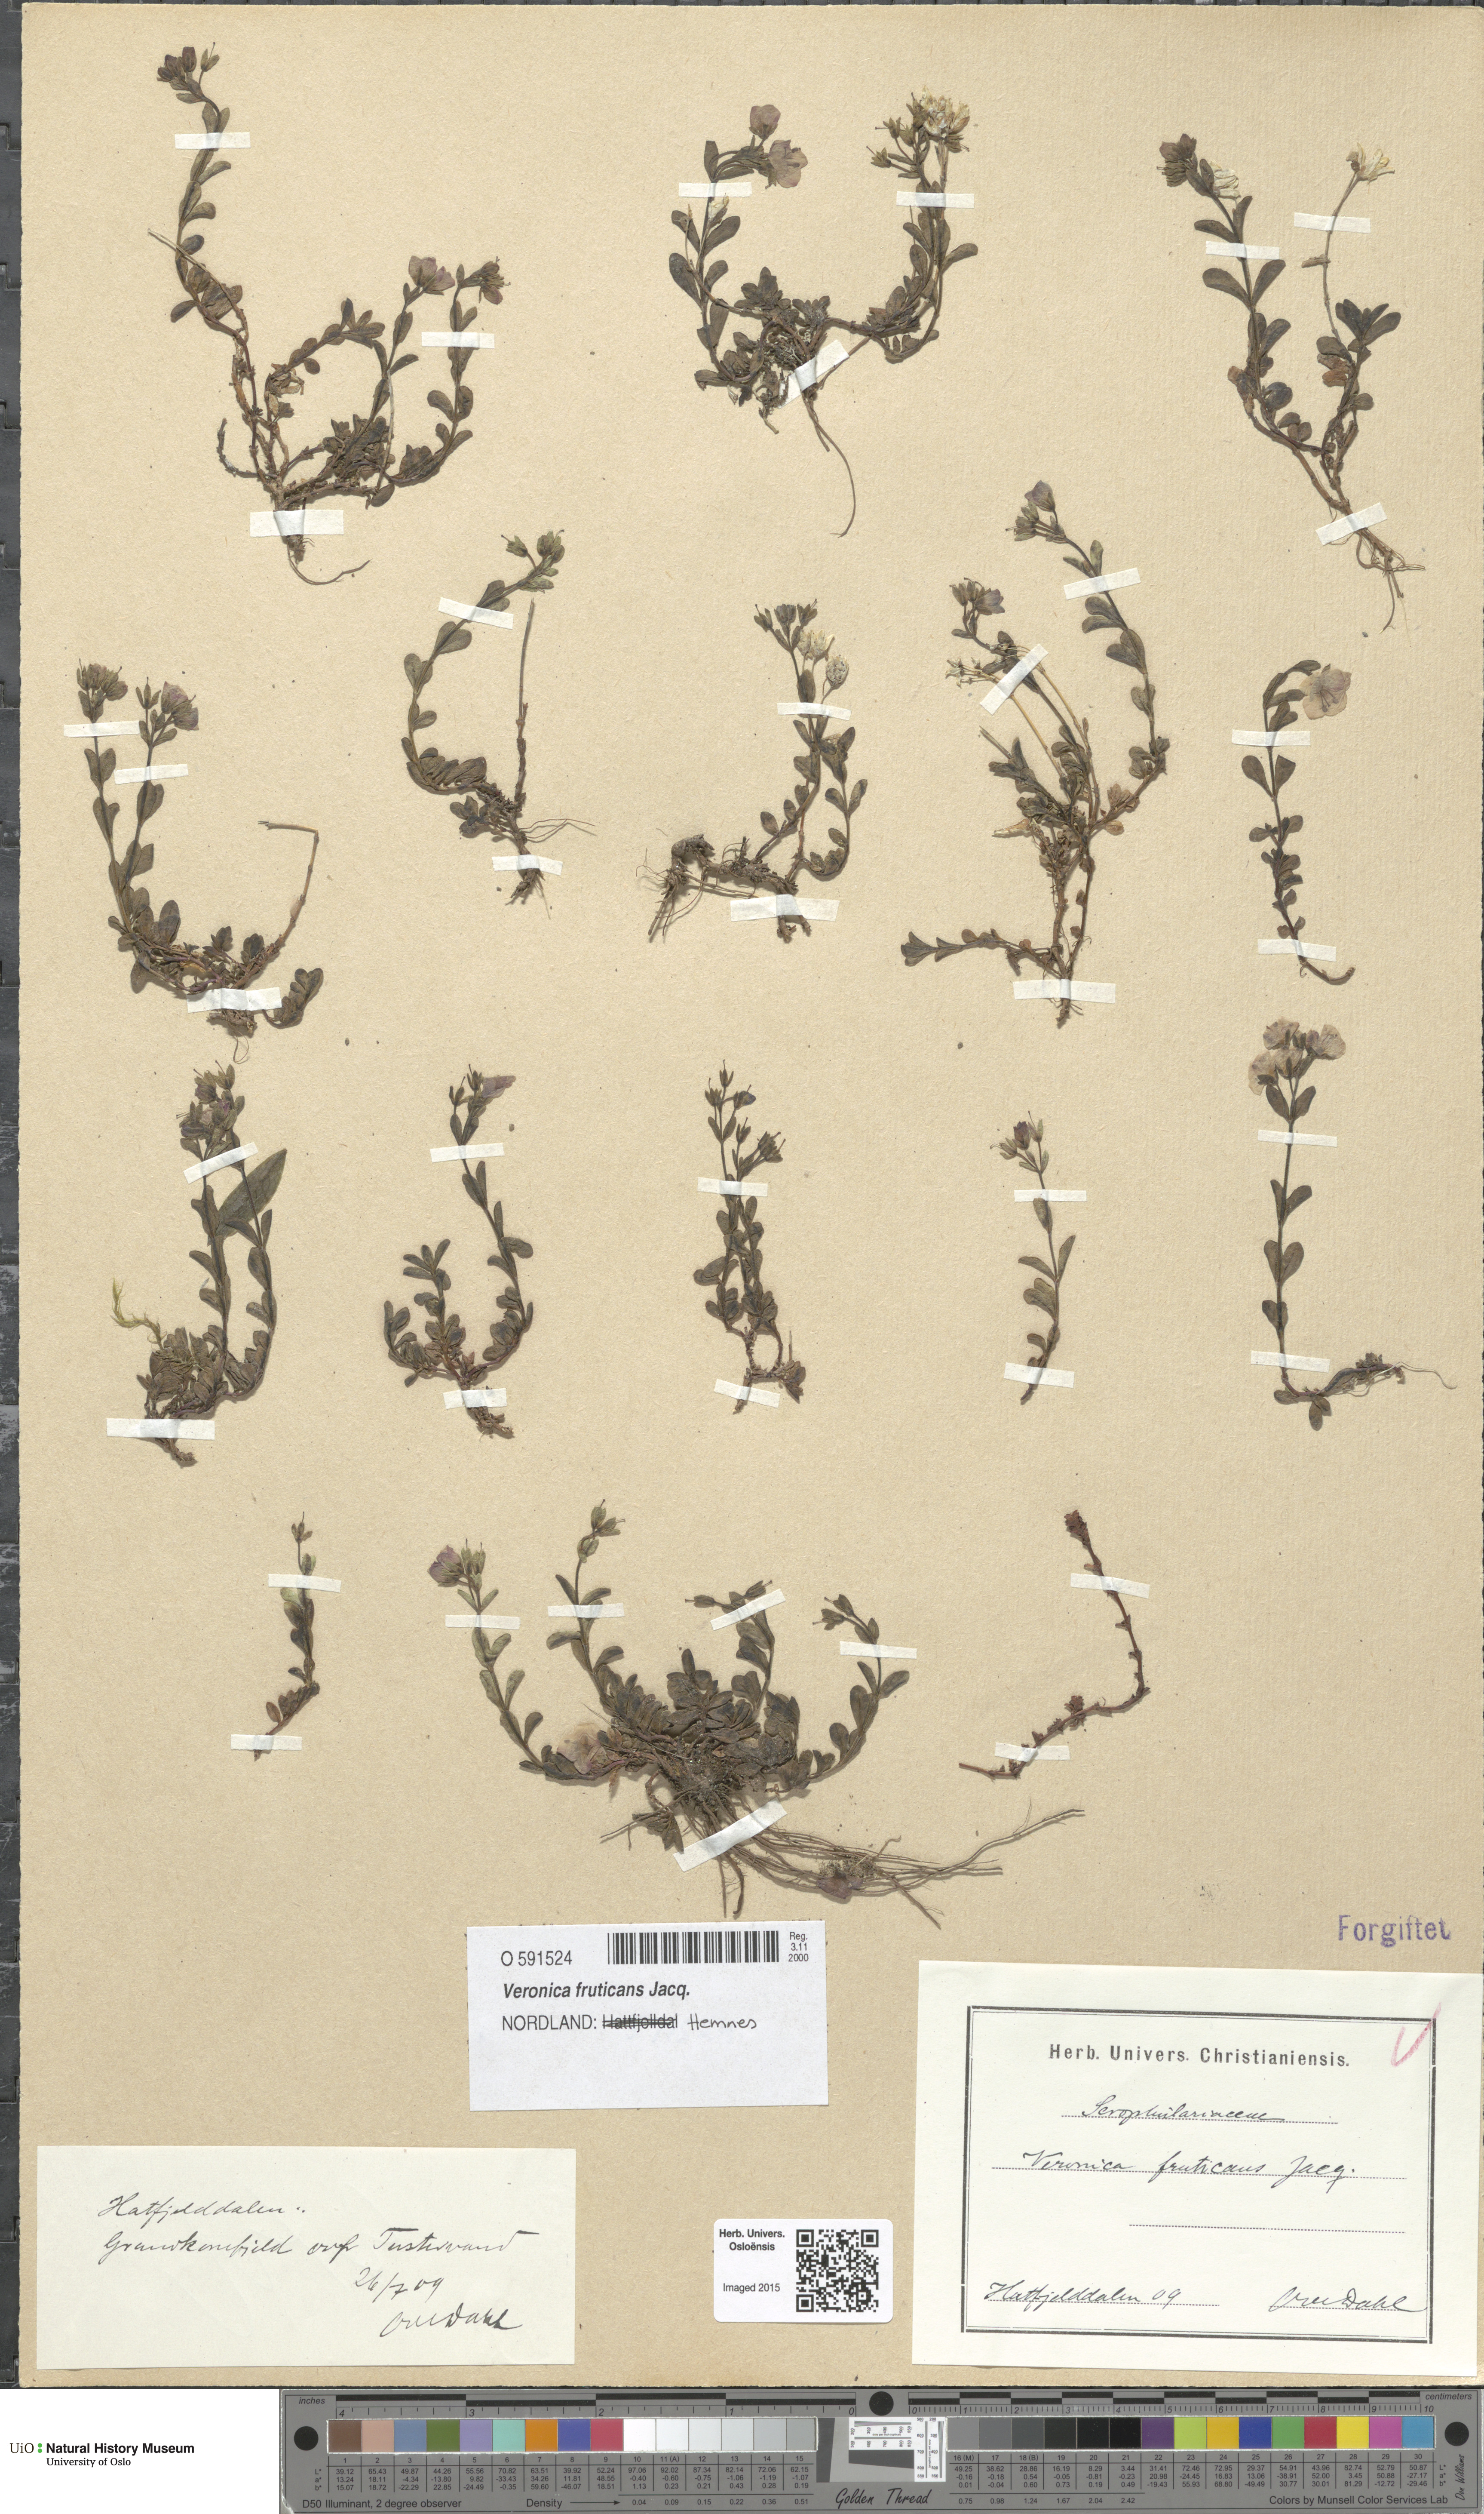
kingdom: Plantae
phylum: Tracheophyta
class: Magnoliopsida
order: Lamiales
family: Plantaginaceae
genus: Veronica
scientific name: Veronica fruticans
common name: Rock speedwell
